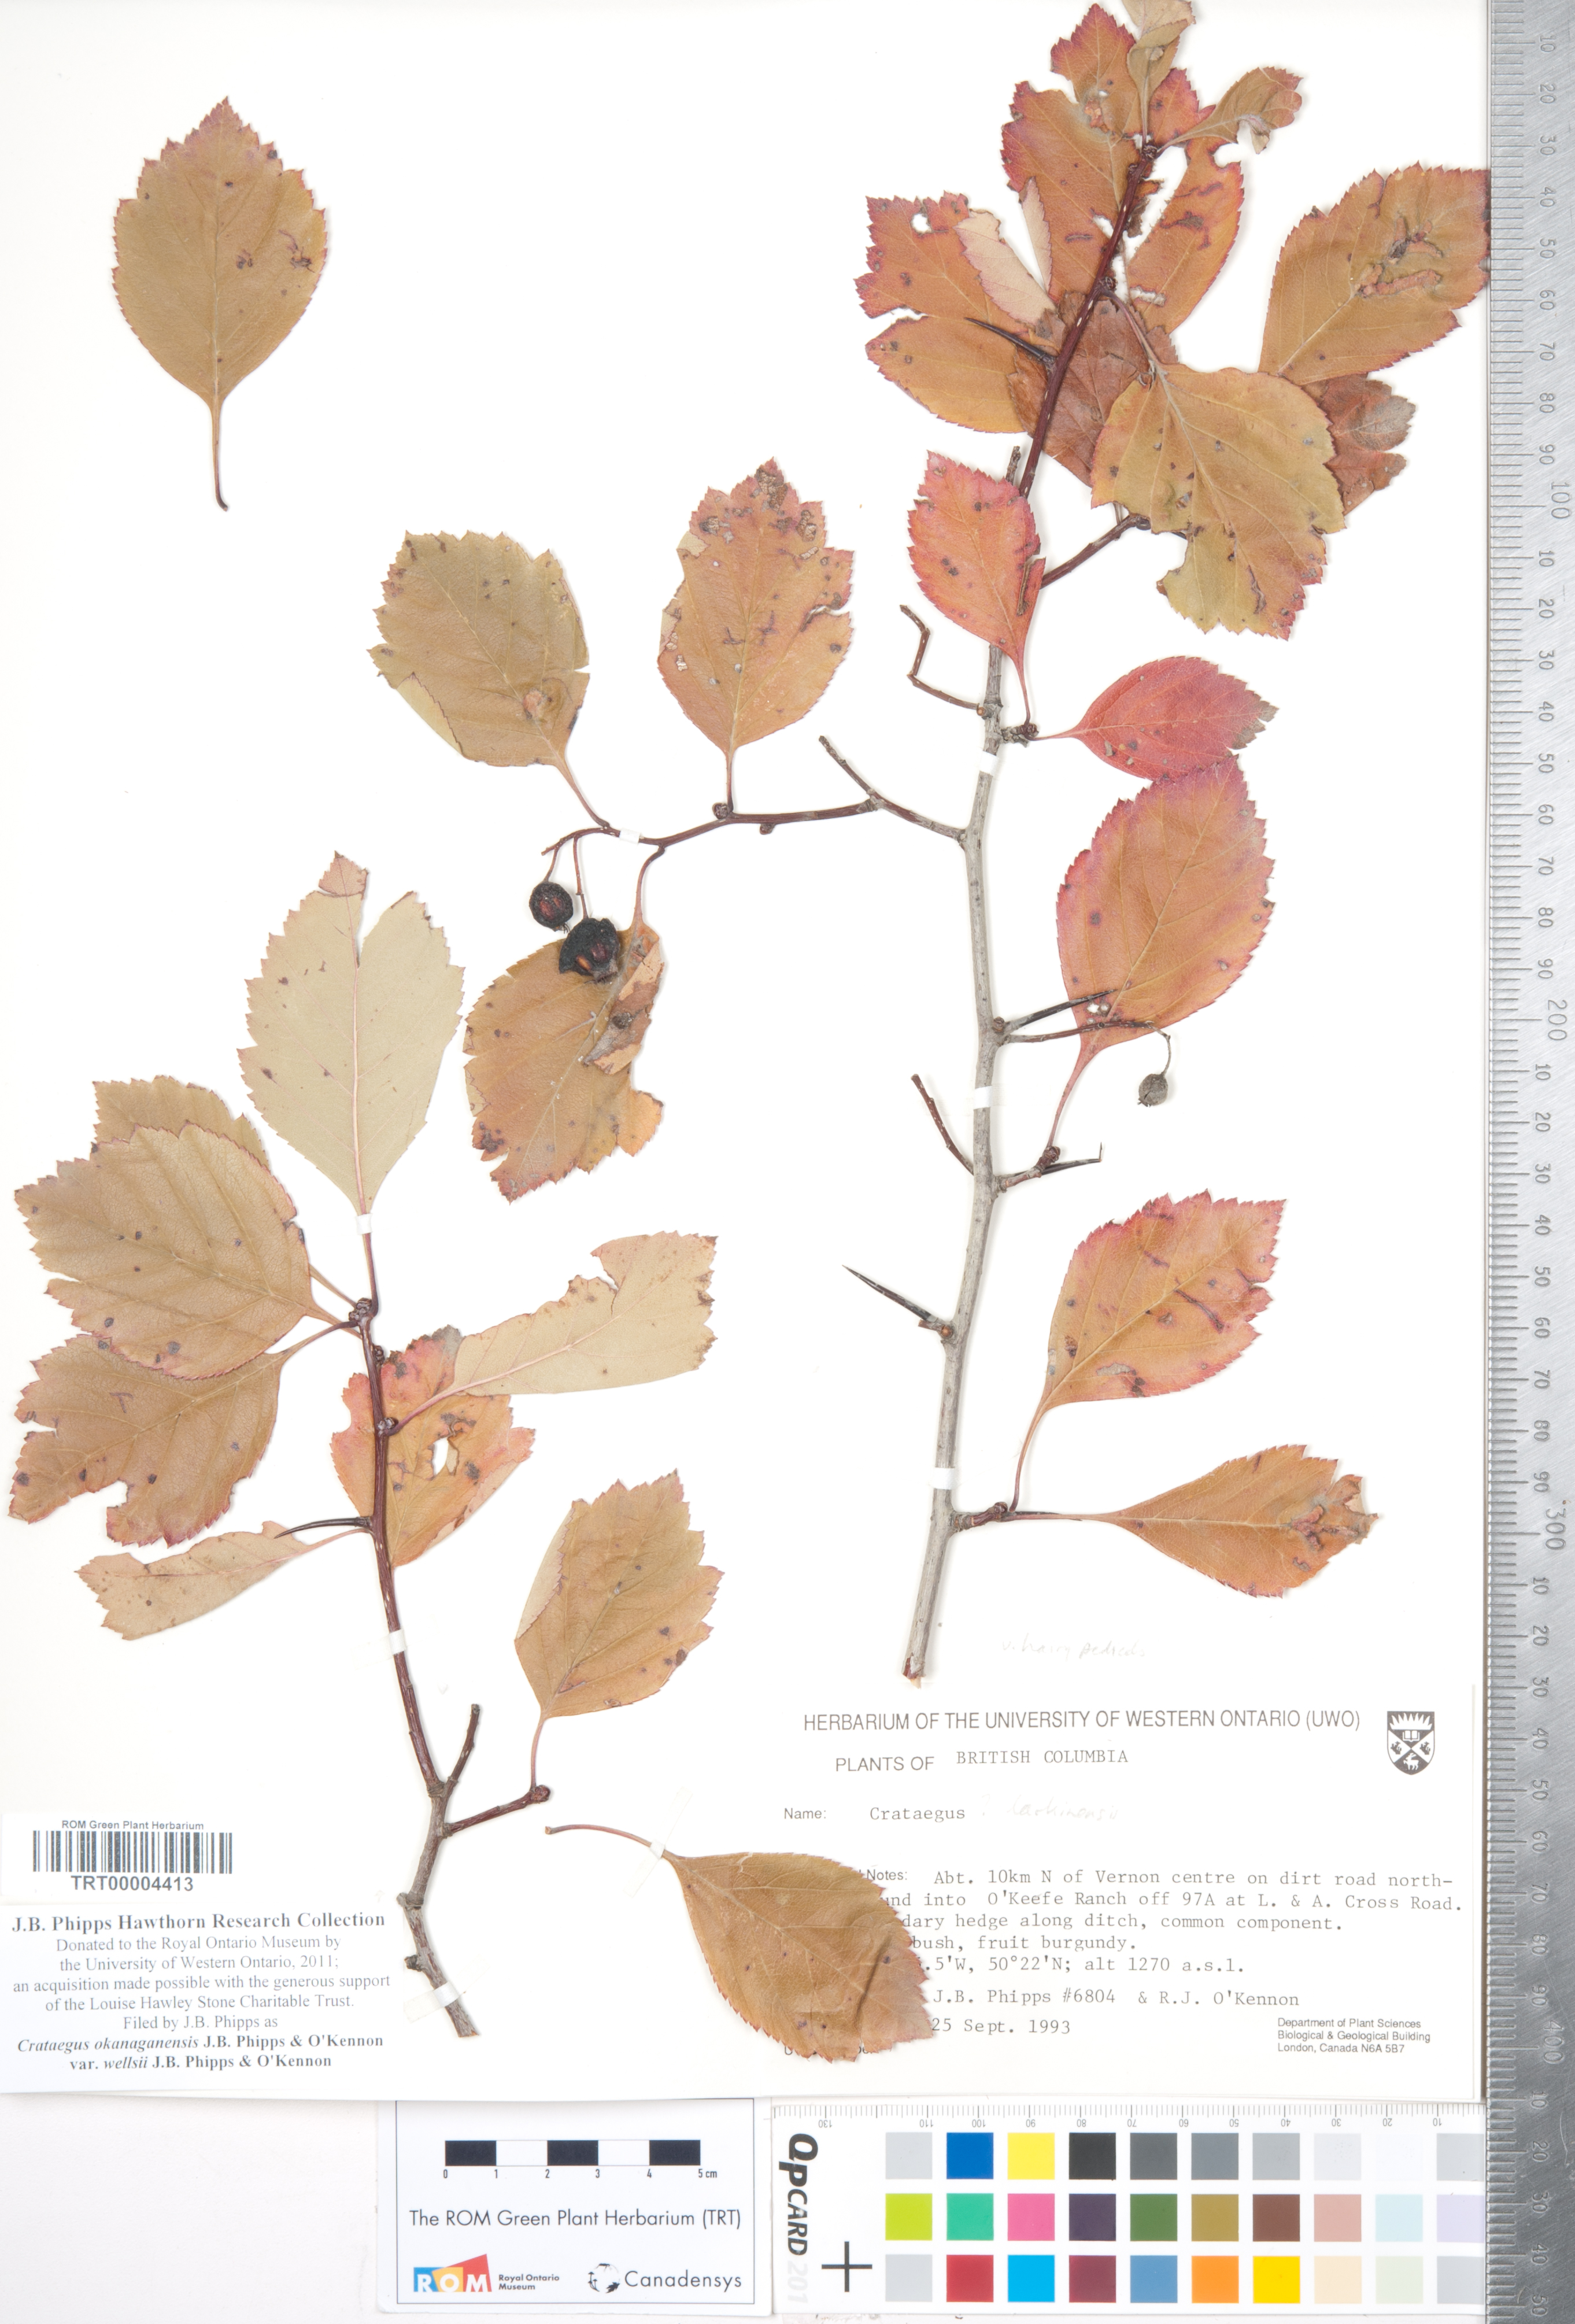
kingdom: Plantae
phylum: Tracheophyta
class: Magnoliopsida
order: Rosales
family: Rosaceae
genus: Crataegus
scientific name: Crataegus okanaganensis
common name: Okanagan valley hawthorn
